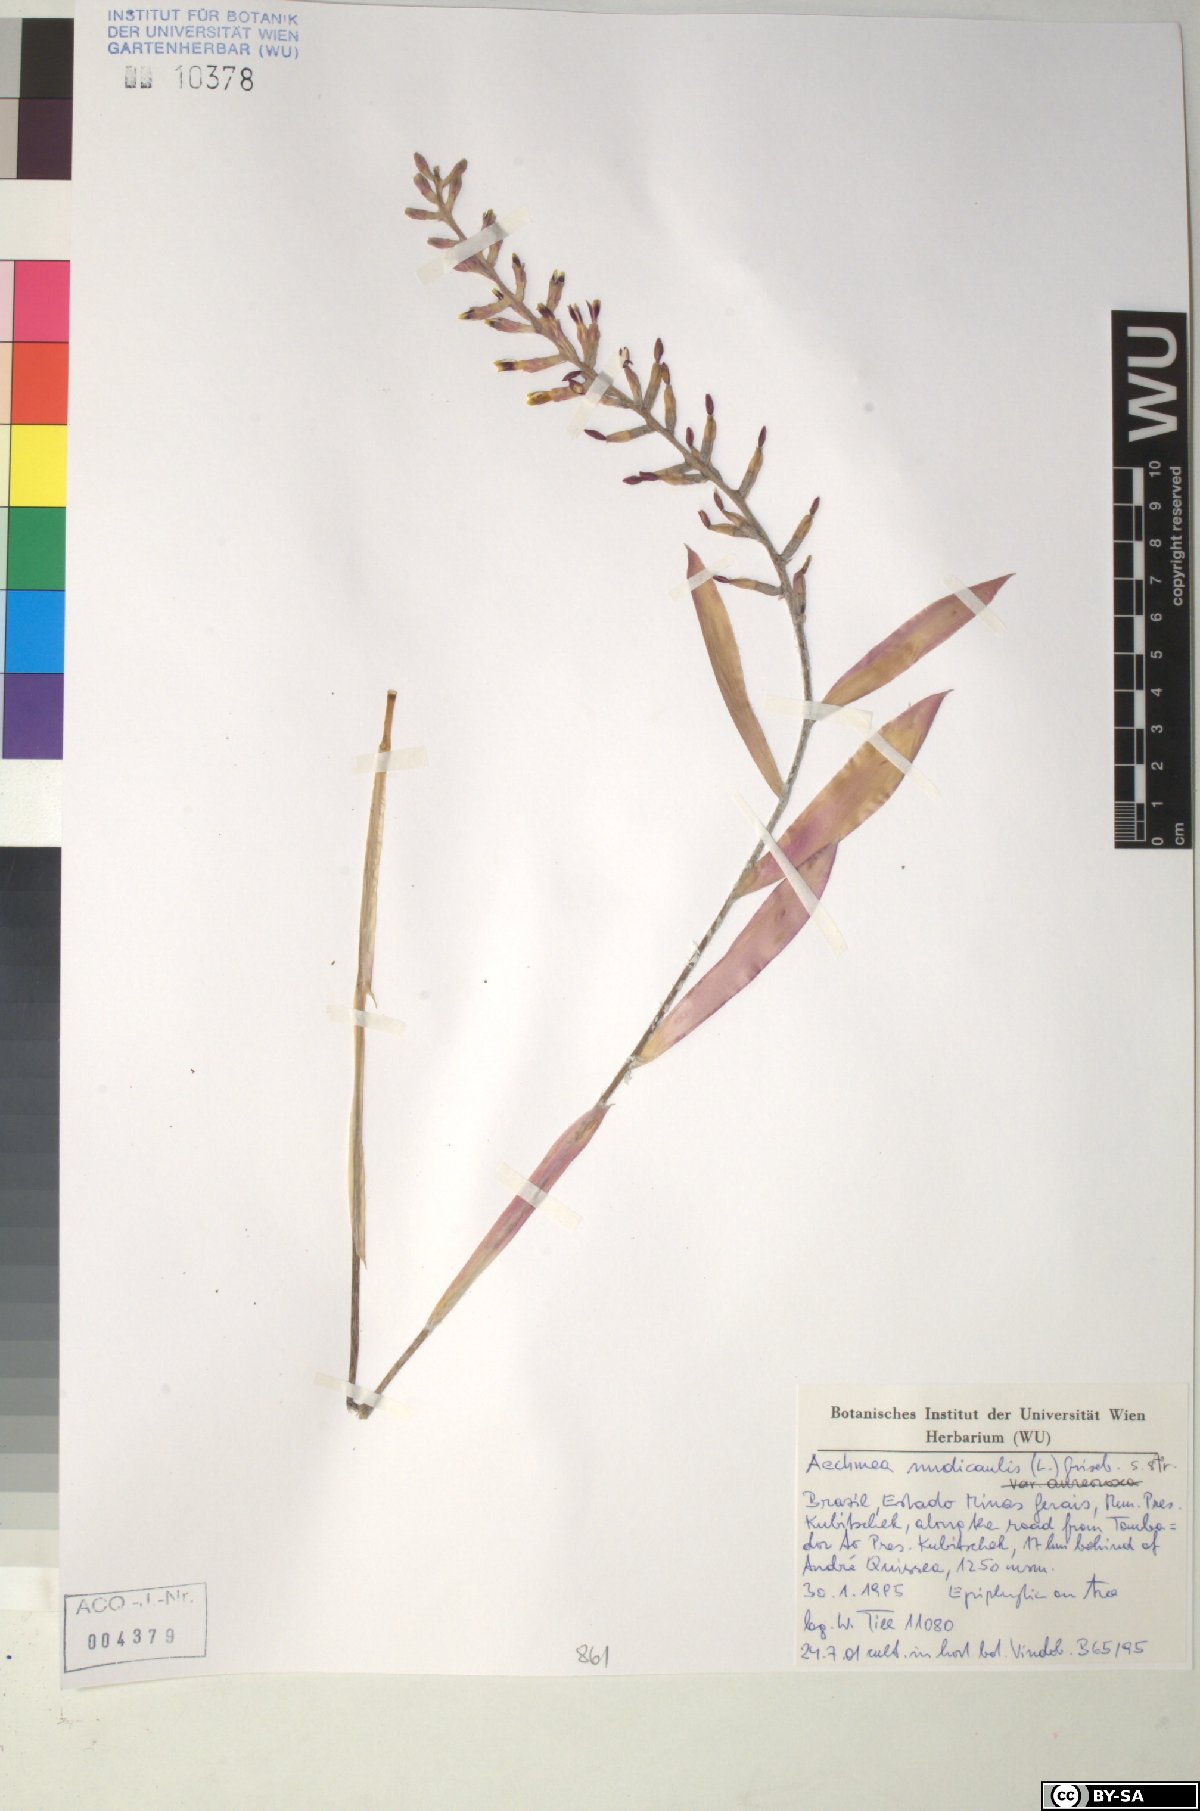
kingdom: Plantae
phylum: Tracheophyta
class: Liliopsida
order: Poales
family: Bromeliaceae
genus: Aechmea
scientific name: Aechmea nudicaulis
